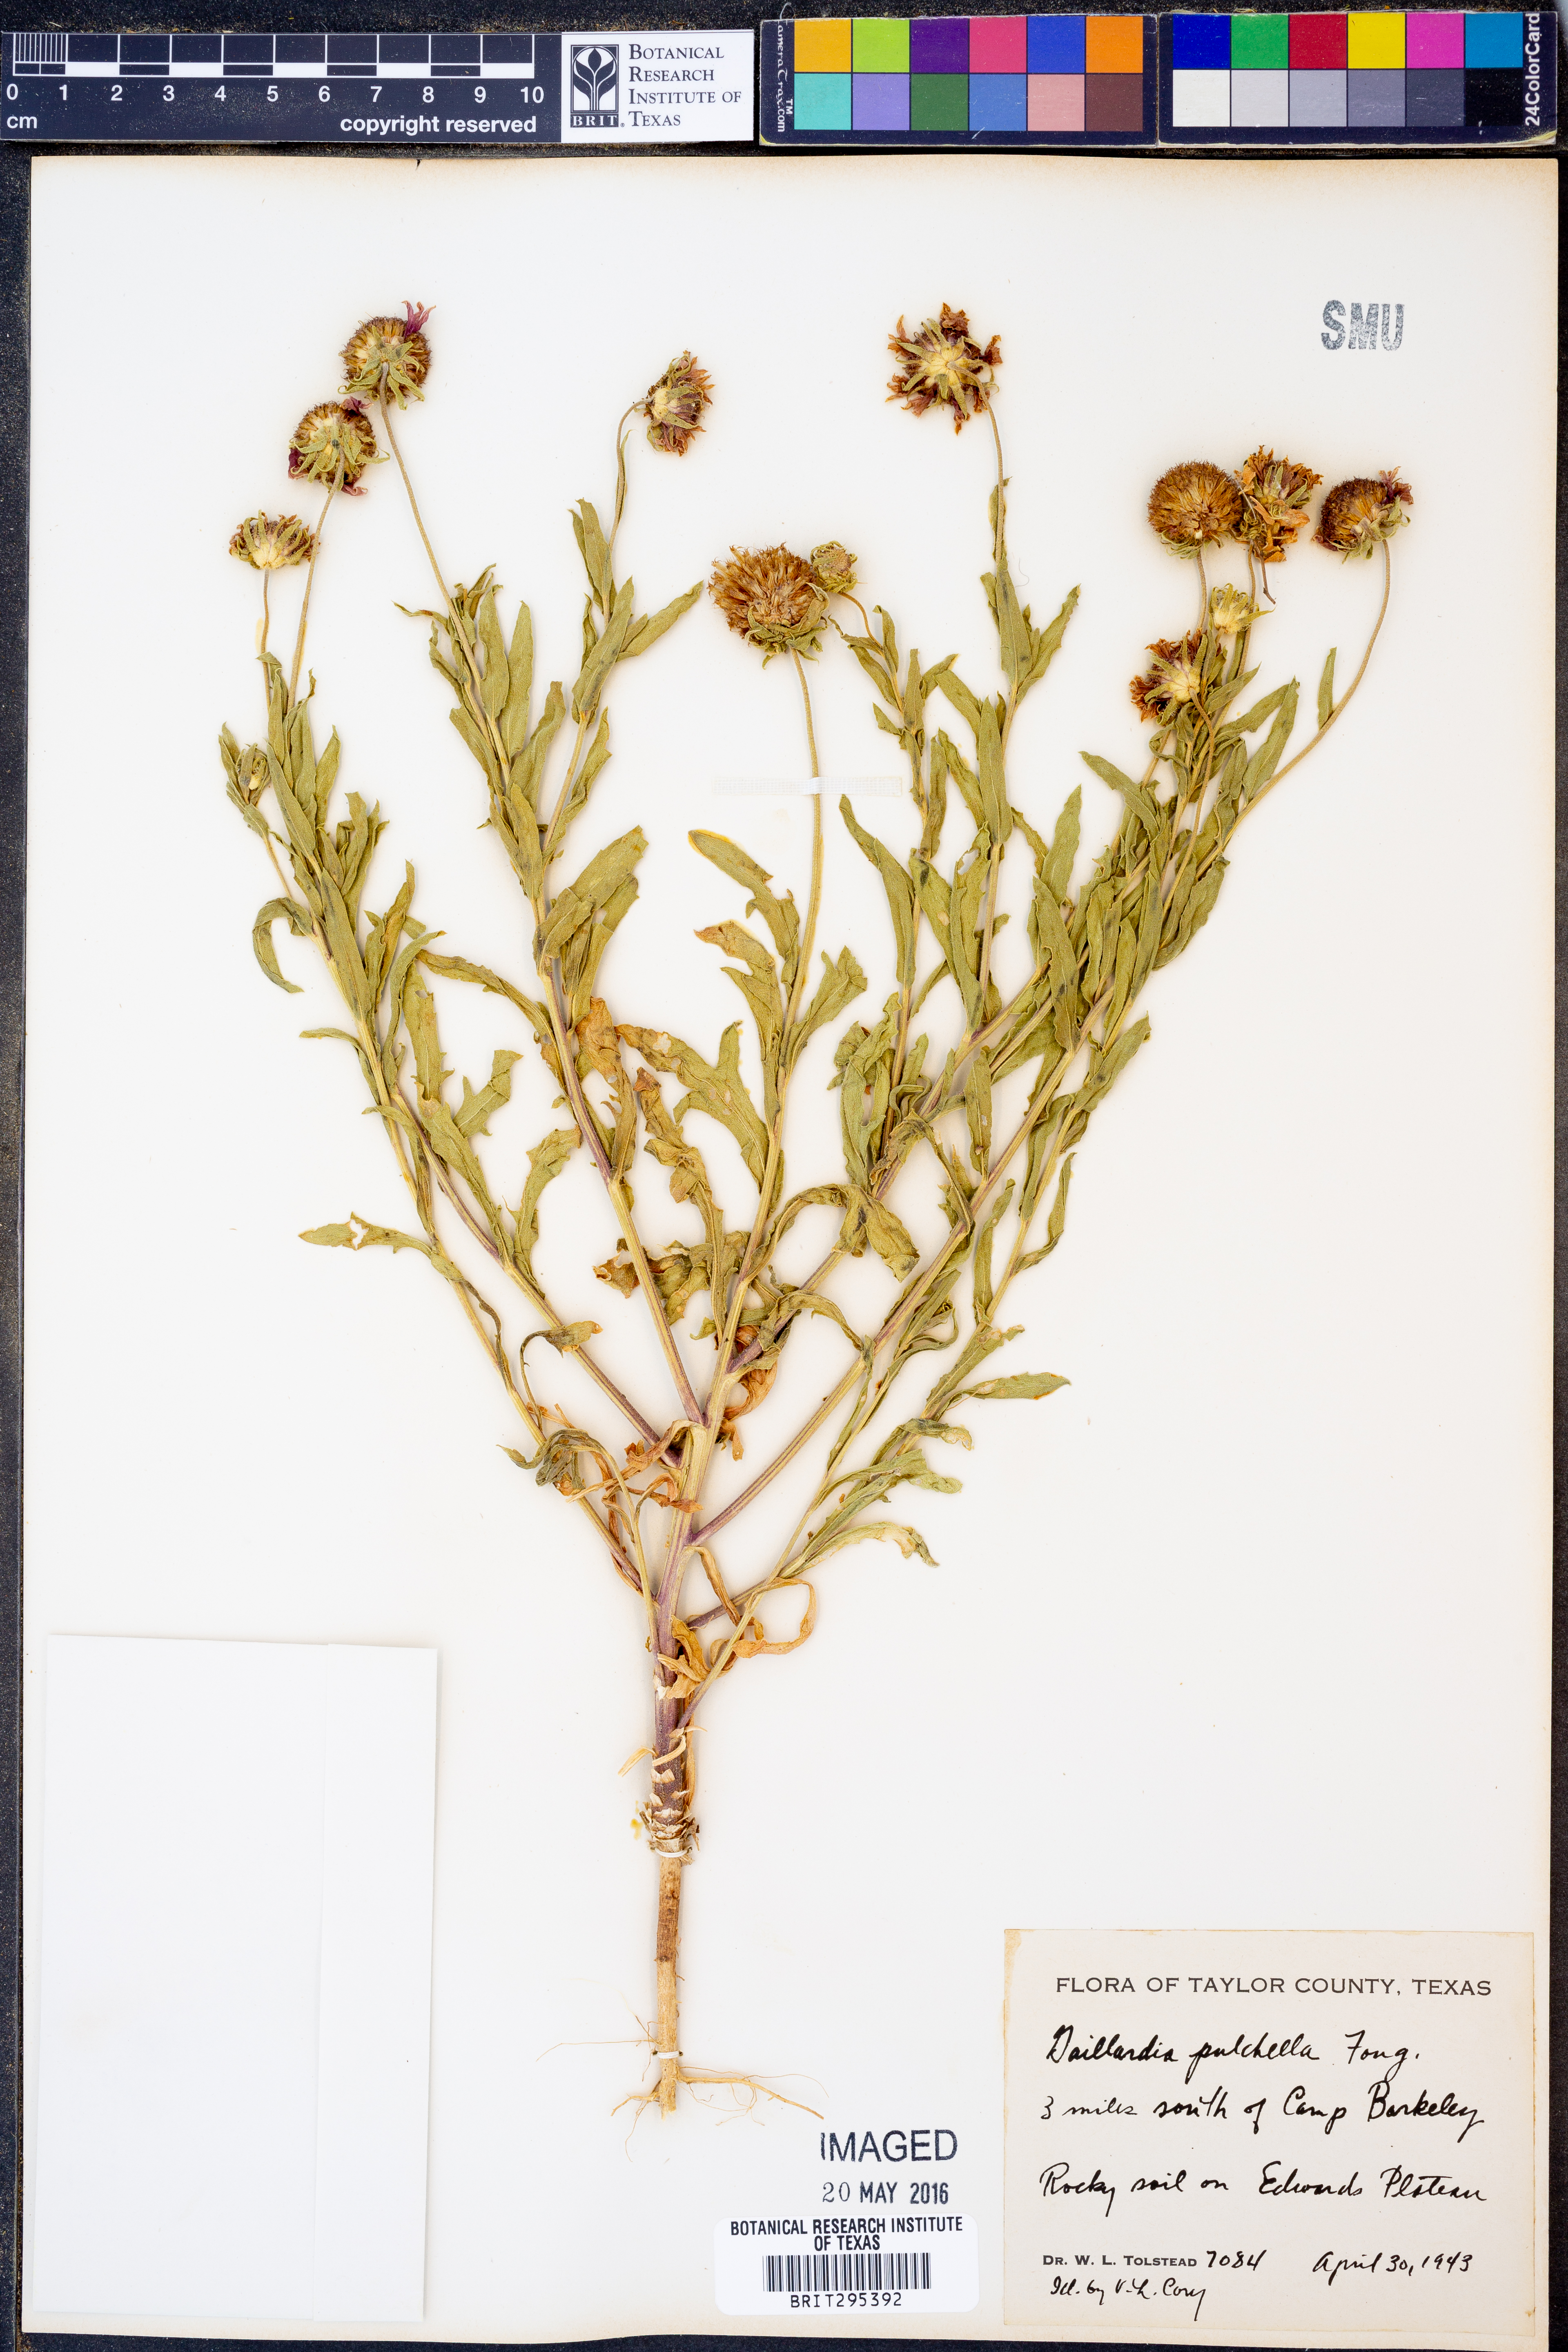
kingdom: Plantae
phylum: Tracheophyta
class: Magnoliopsida
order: Asterales
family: Asteraceae
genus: Gaillardia
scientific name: Gaillardia pulchella
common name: Firewheel
